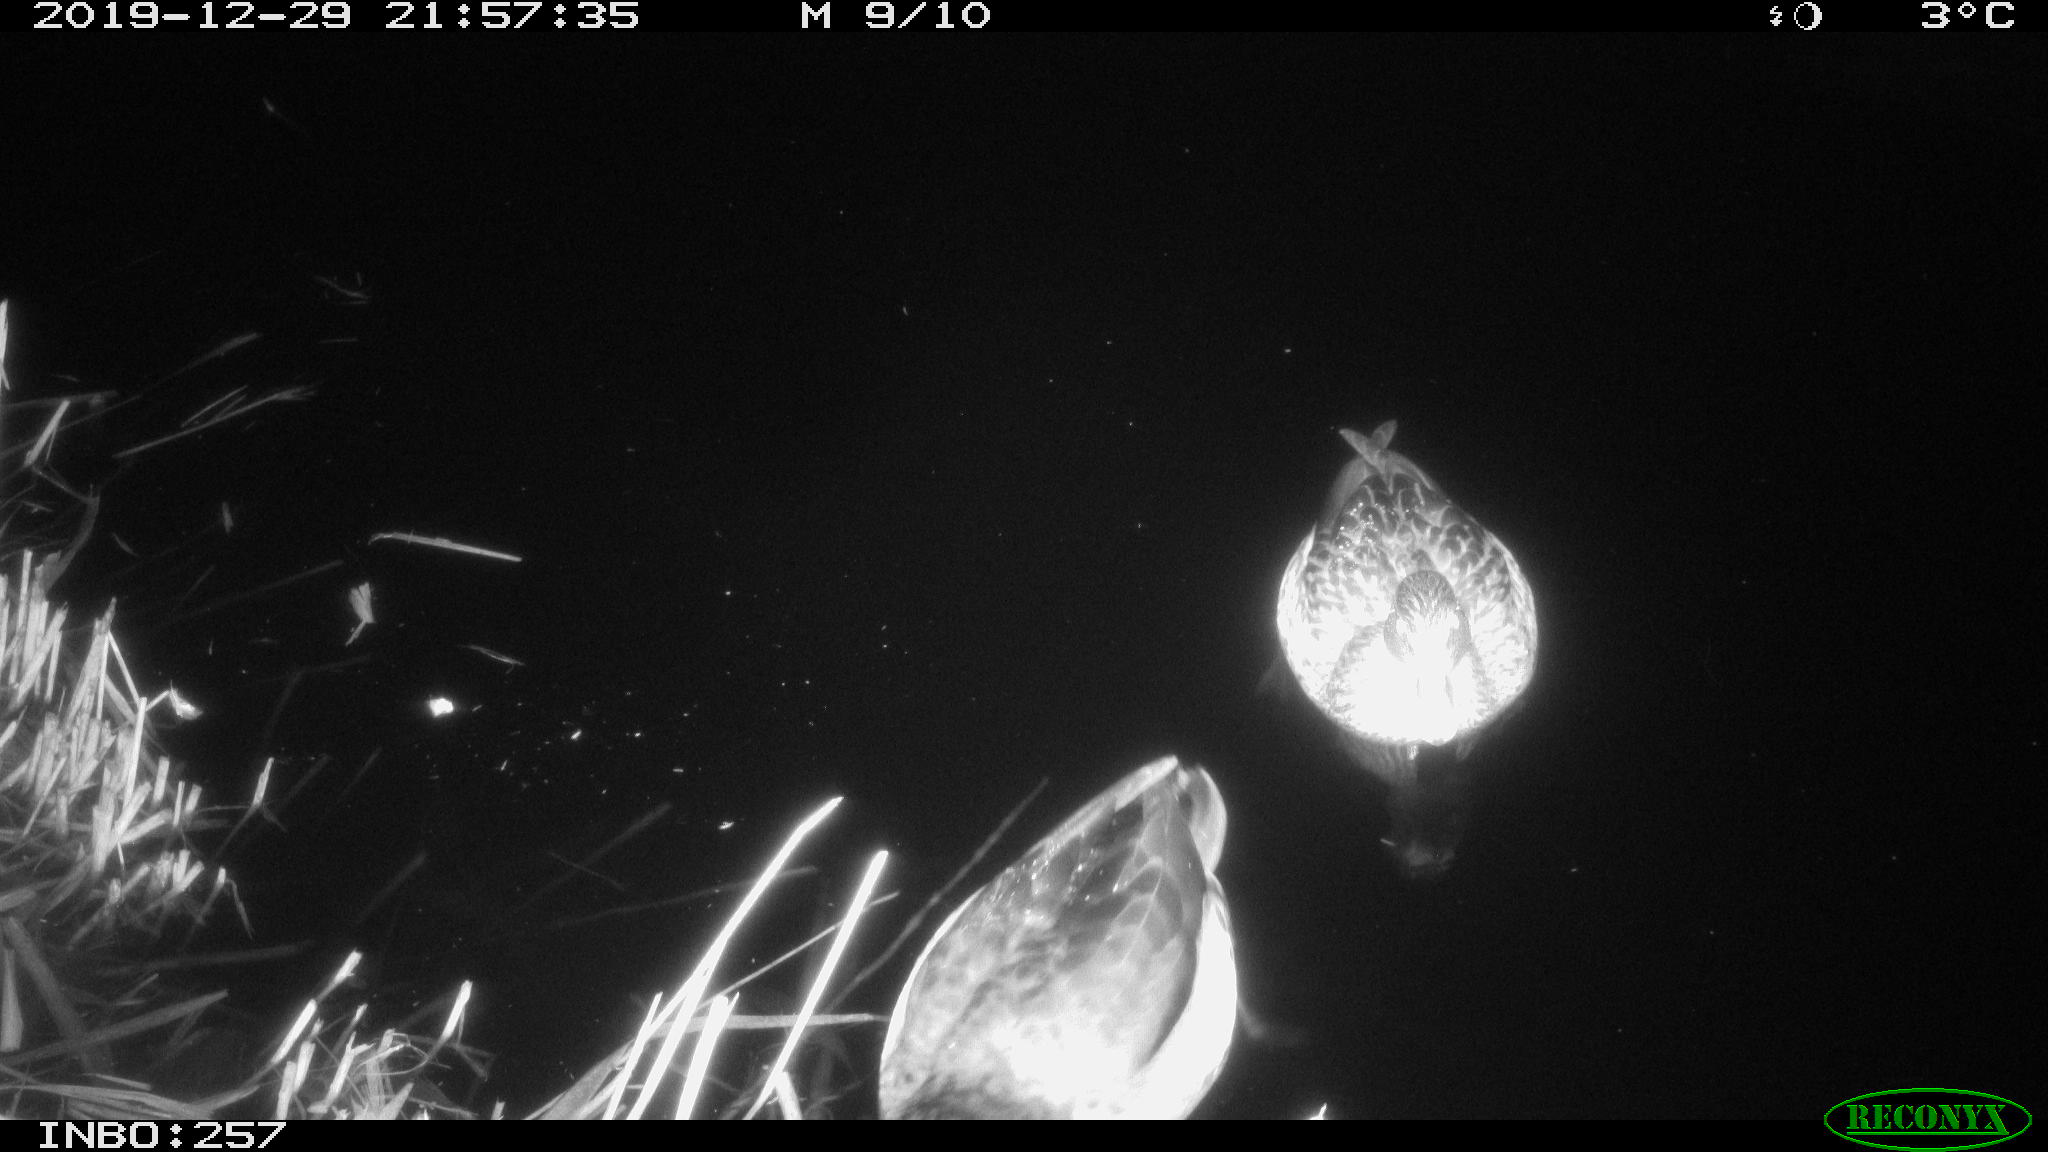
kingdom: Animalia
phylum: Chordata
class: Aves
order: Anseriformes
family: Anatidae
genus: Anas
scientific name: Anas platyrhynchos
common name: Mallard
